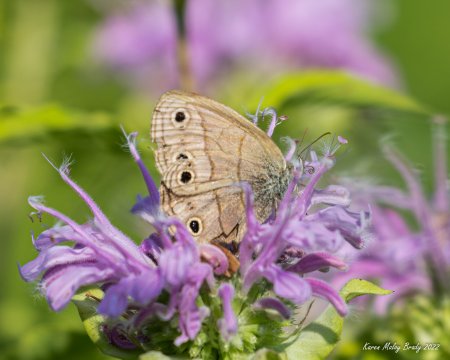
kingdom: Animalia
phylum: Arthropoda
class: Insecta
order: Lepidoptera
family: Nymphalidae
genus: Euptychia
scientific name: Euptychia cymela
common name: Little Wood Satyr
